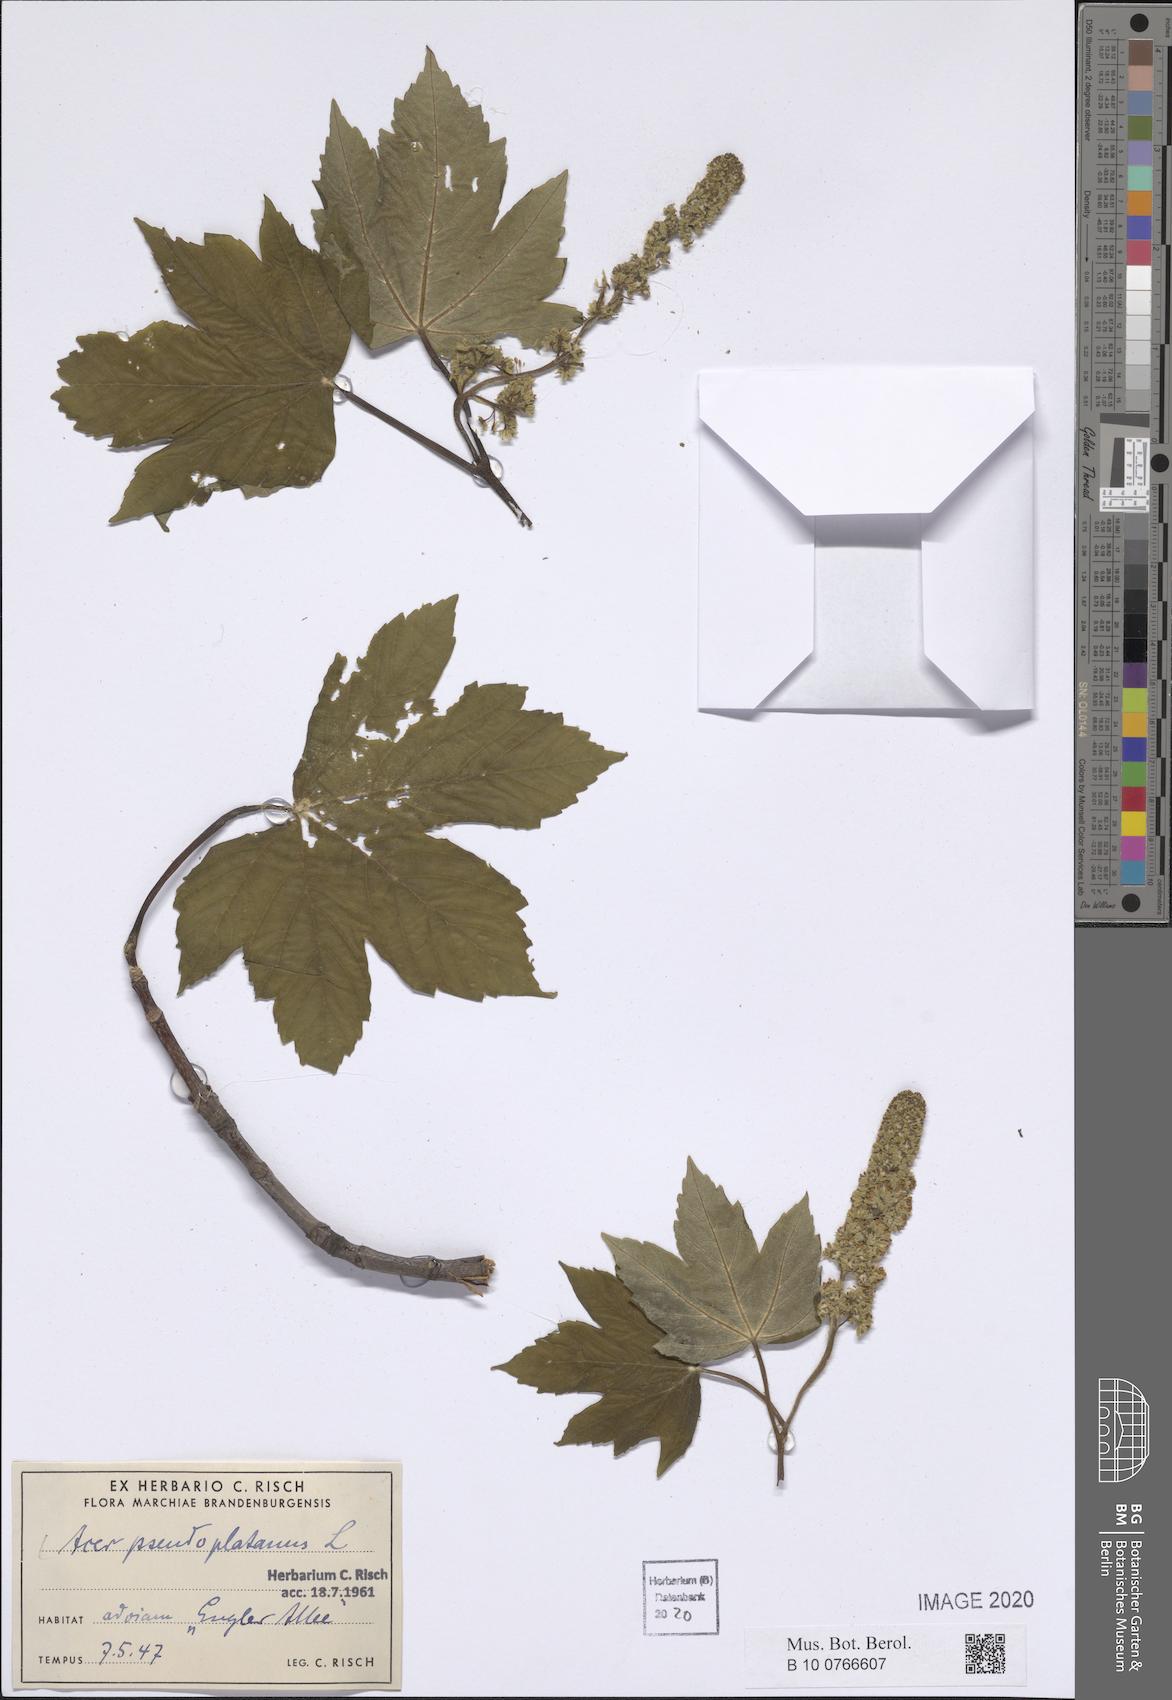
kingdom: Plantae
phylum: Tracheophyta
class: Magnoliopsida
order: Sapindales
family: Sapindaceae
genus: Acer
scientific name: Acer pseudoplatanus
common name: Sycamore
